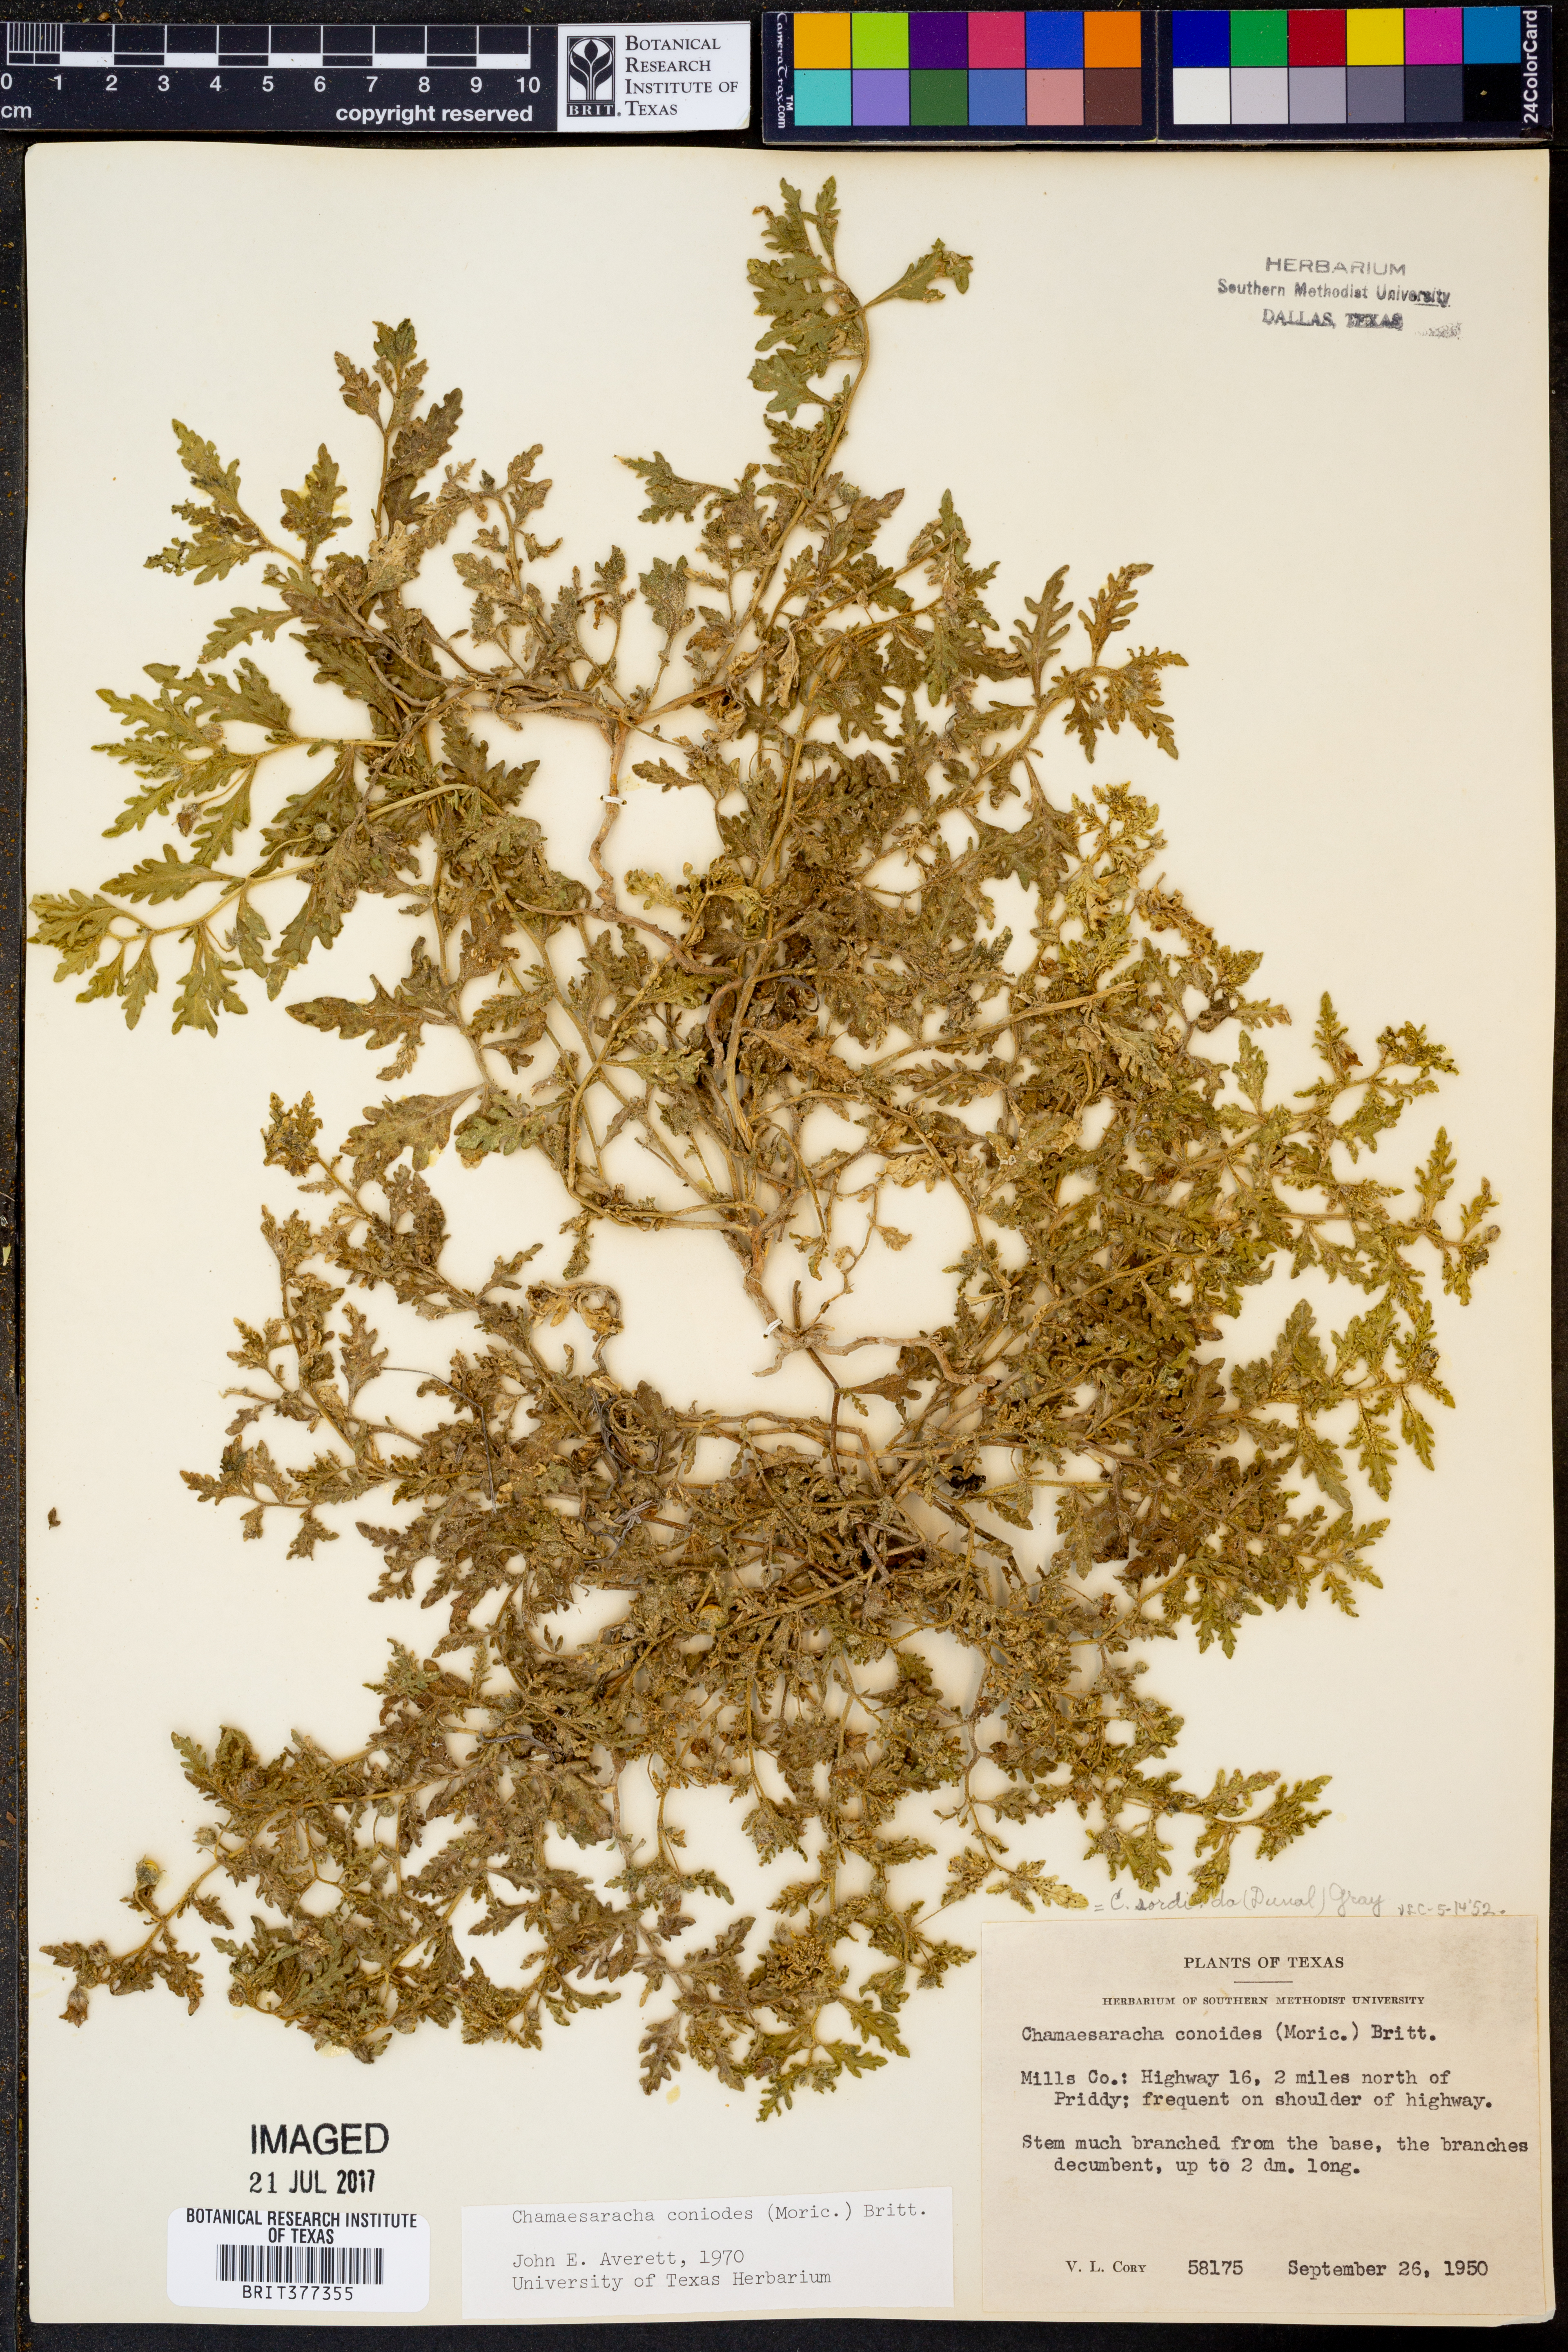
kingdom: Plantae
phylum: Tracheophyta
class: Magnoliopsida
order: Solanales
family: Solanaceae
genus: Chamaesaracha
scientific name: Chamaesaracha coniodes
